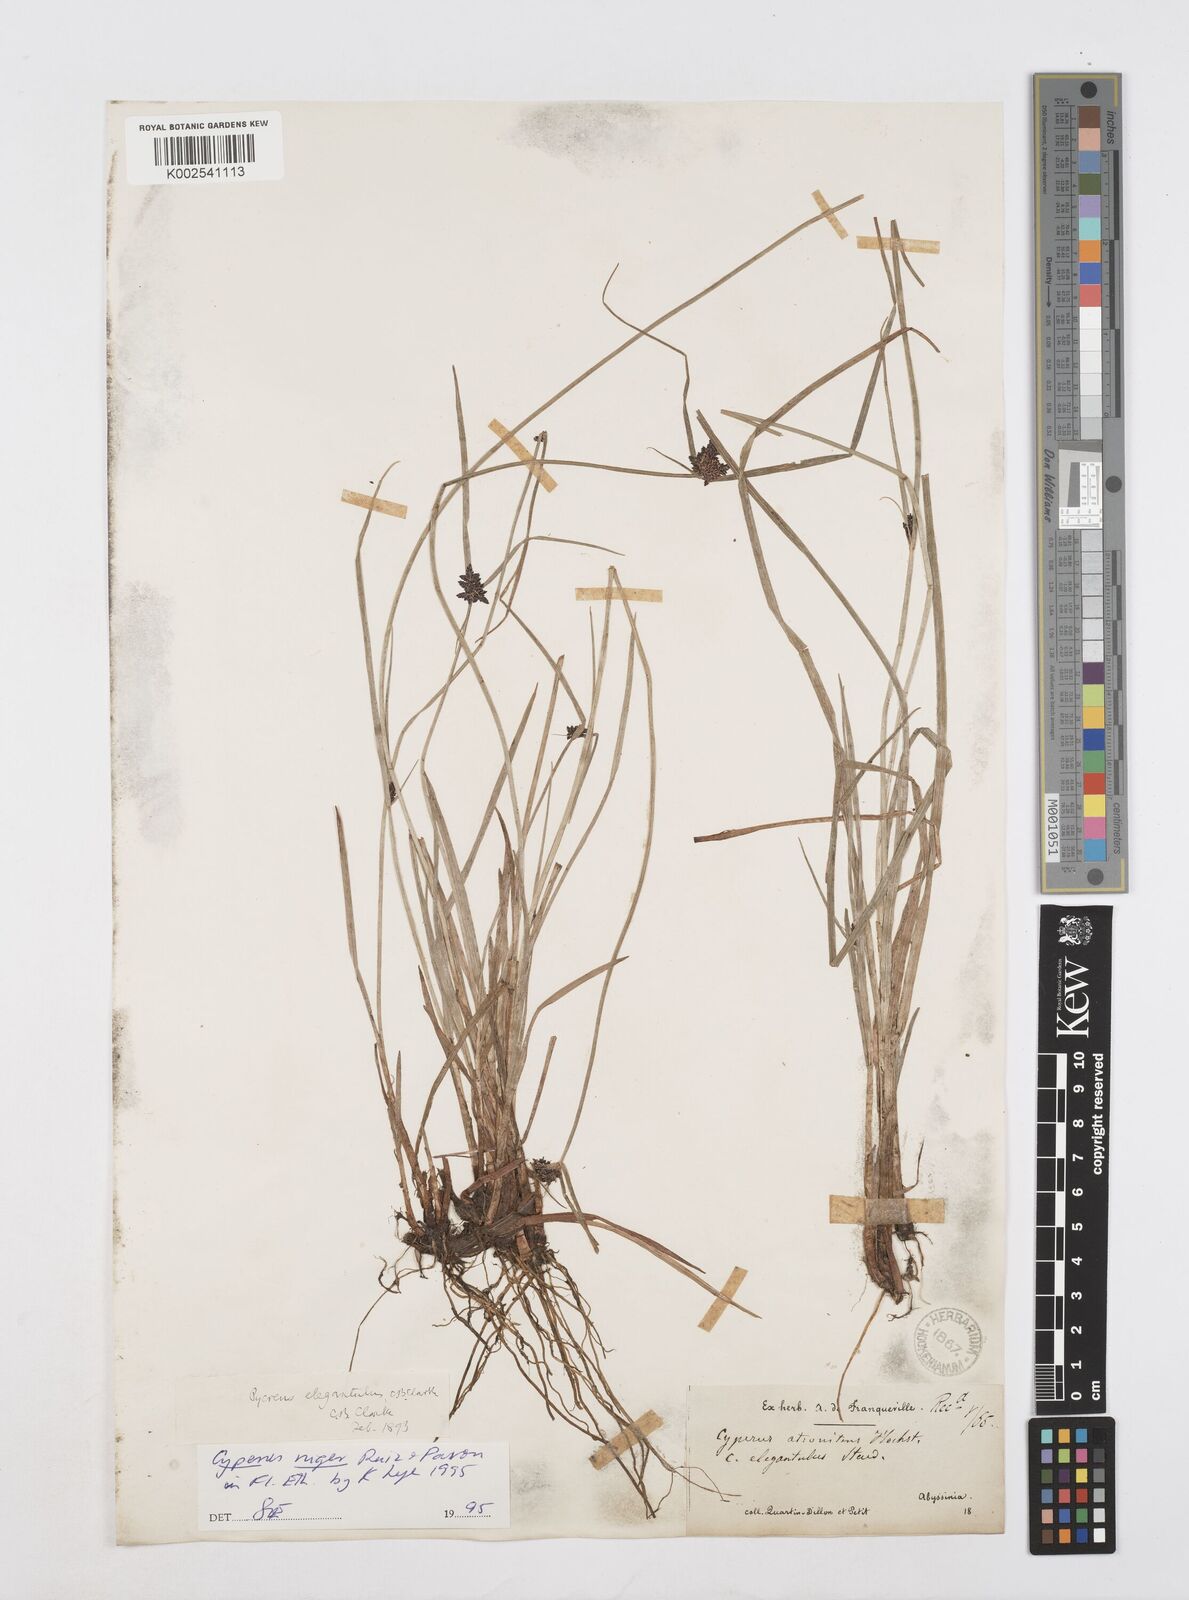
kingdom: Plantae
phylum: Tracheophyta
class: Liliopsida
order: Poales
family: Cyperaceae
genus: Cyperus
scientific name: Cyperus elegantulus
